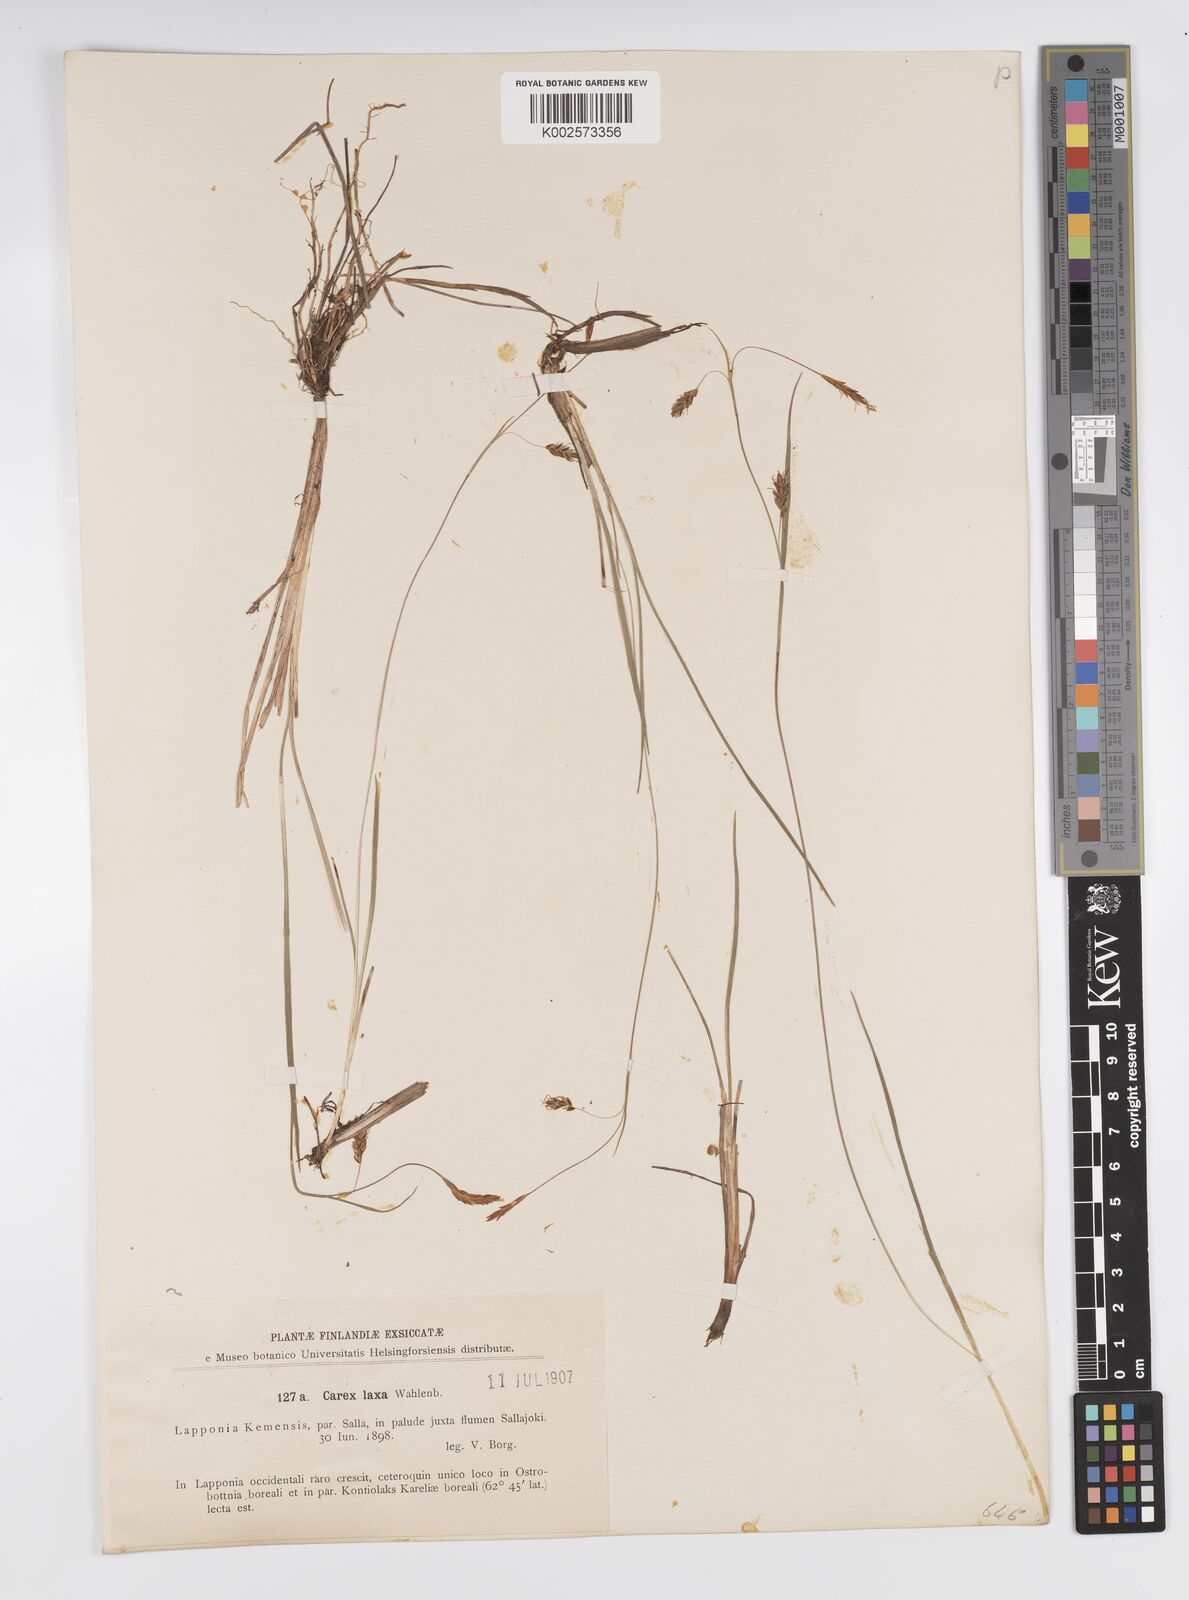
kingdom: Plantae
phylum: Tracheophyta
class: Liliopsida
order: Poales
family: Cyperaceae
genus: Carex
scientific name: Carex laxa
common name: Weak sedge
